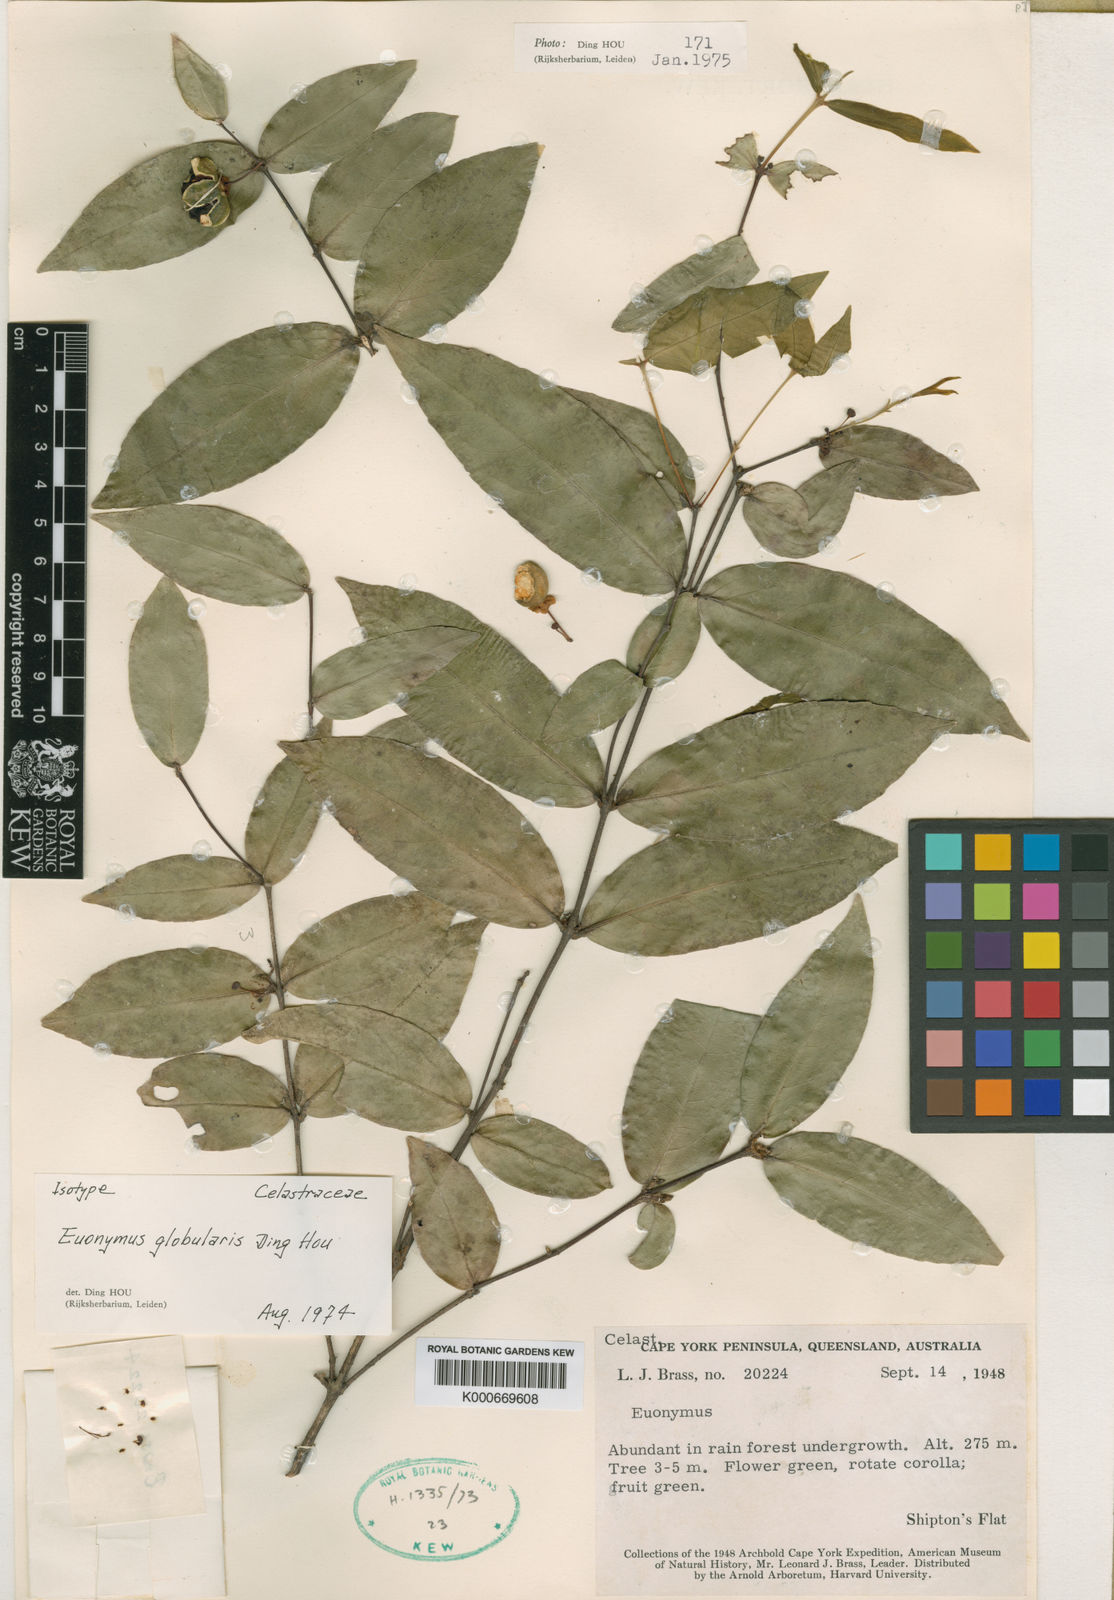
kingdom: Plantae
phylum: Tracheophyta
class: Magnoliopsida
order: Celastrales
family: Celastraceae
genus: Dinghoua
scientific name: Dinghoua globularis
